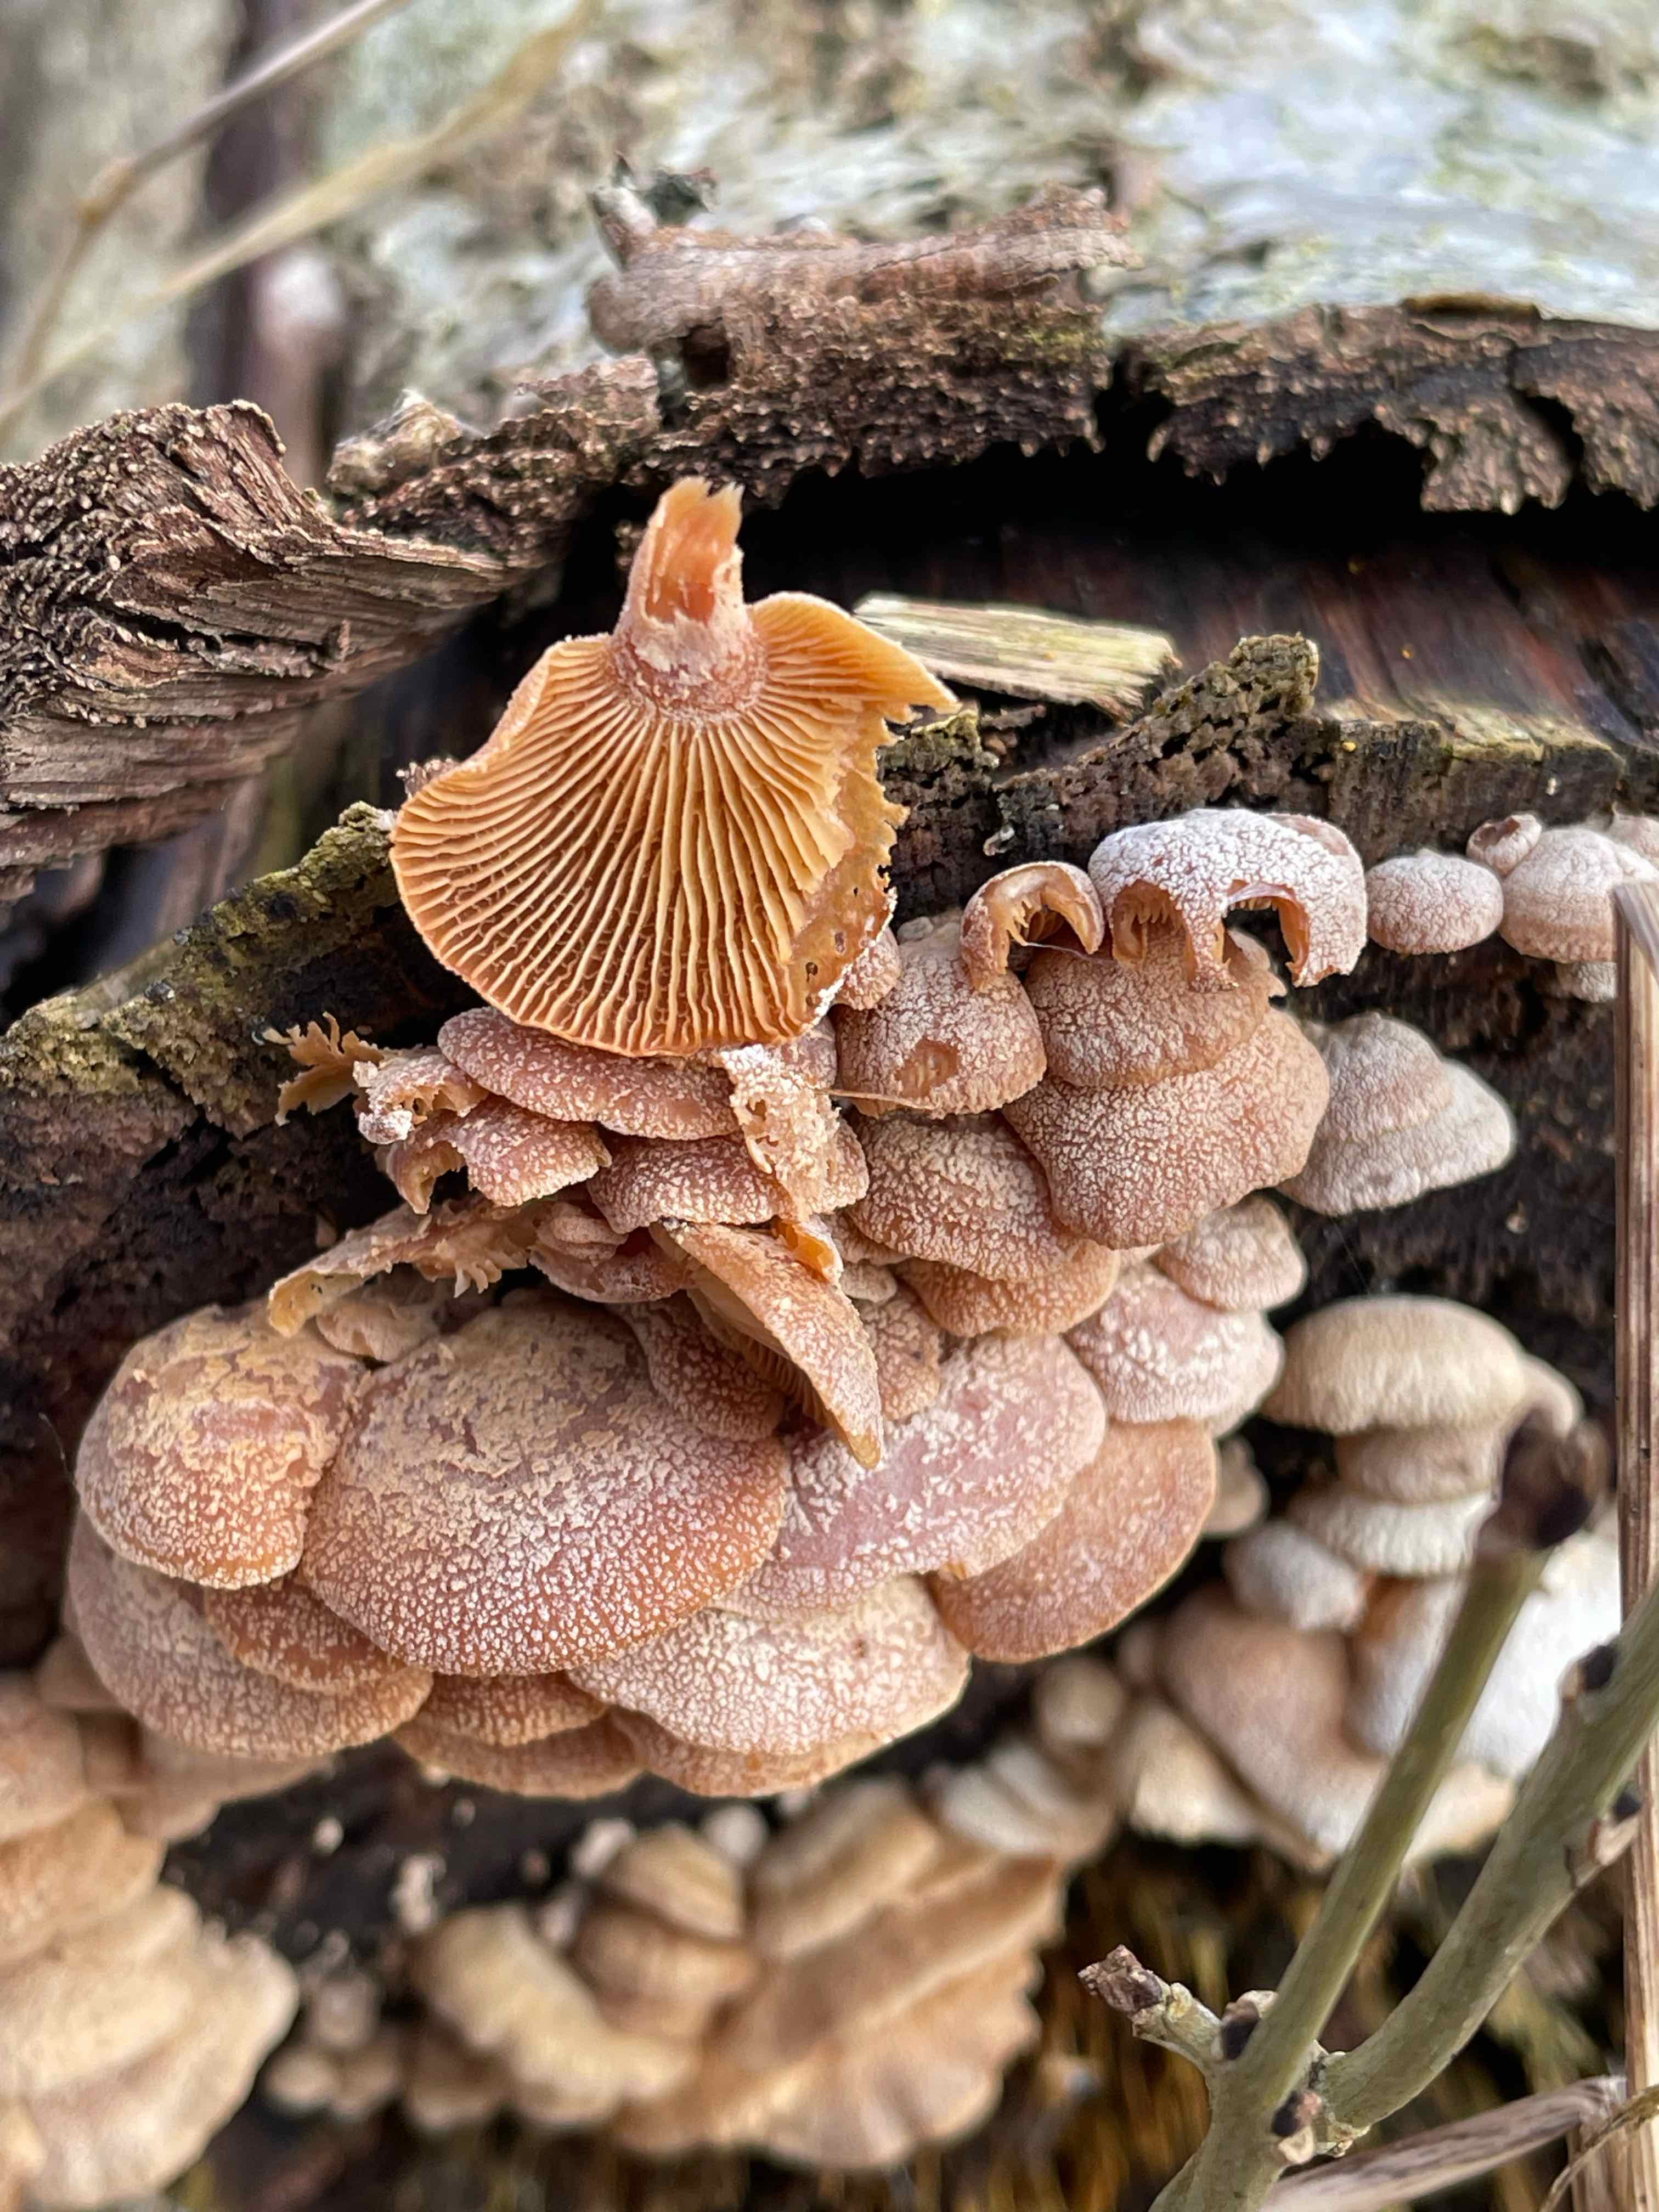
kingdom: Fungi
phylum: Basidiomycota
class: Agaricomycetes
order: Agaricales
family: Mycenaceae
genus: Panellus
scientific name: Panellus stipticus
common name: kliddet epaulethat
